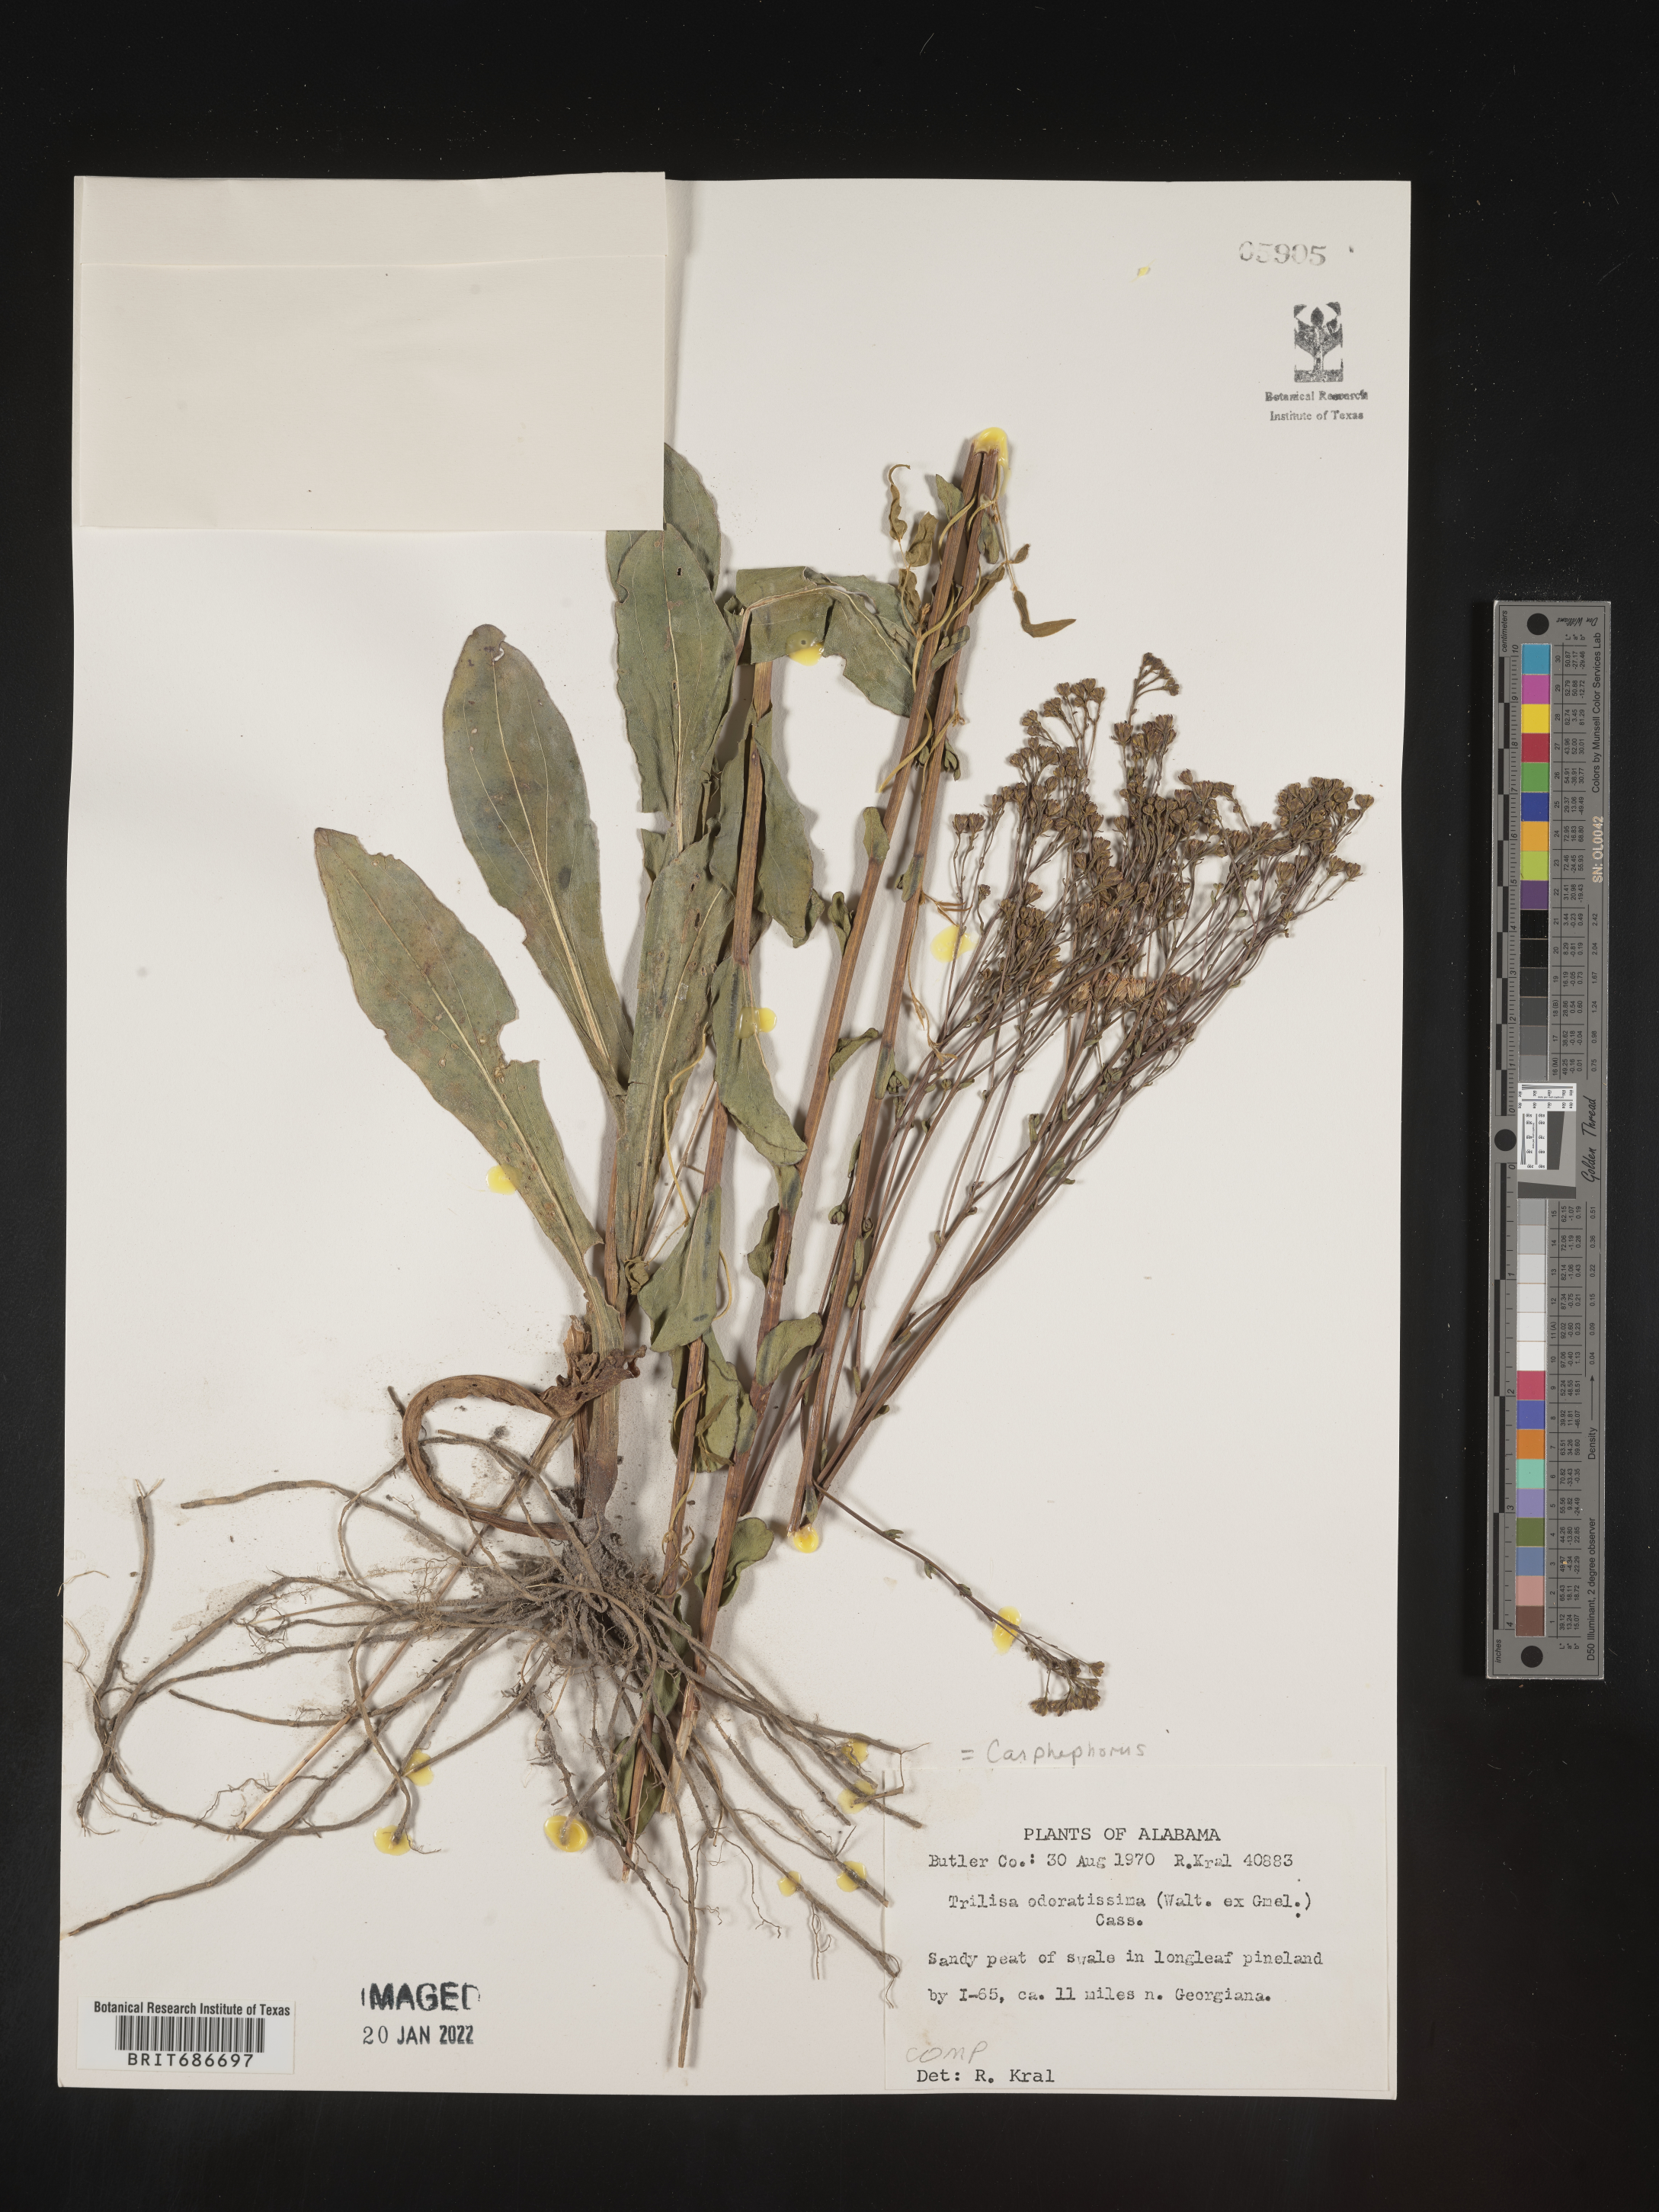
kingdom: Plantae
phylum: Tracheophyta
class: Magnoliopsida
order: Asterales
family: Asteraceae
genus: Carphephorus
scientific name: Carphephorus odoratissimus
